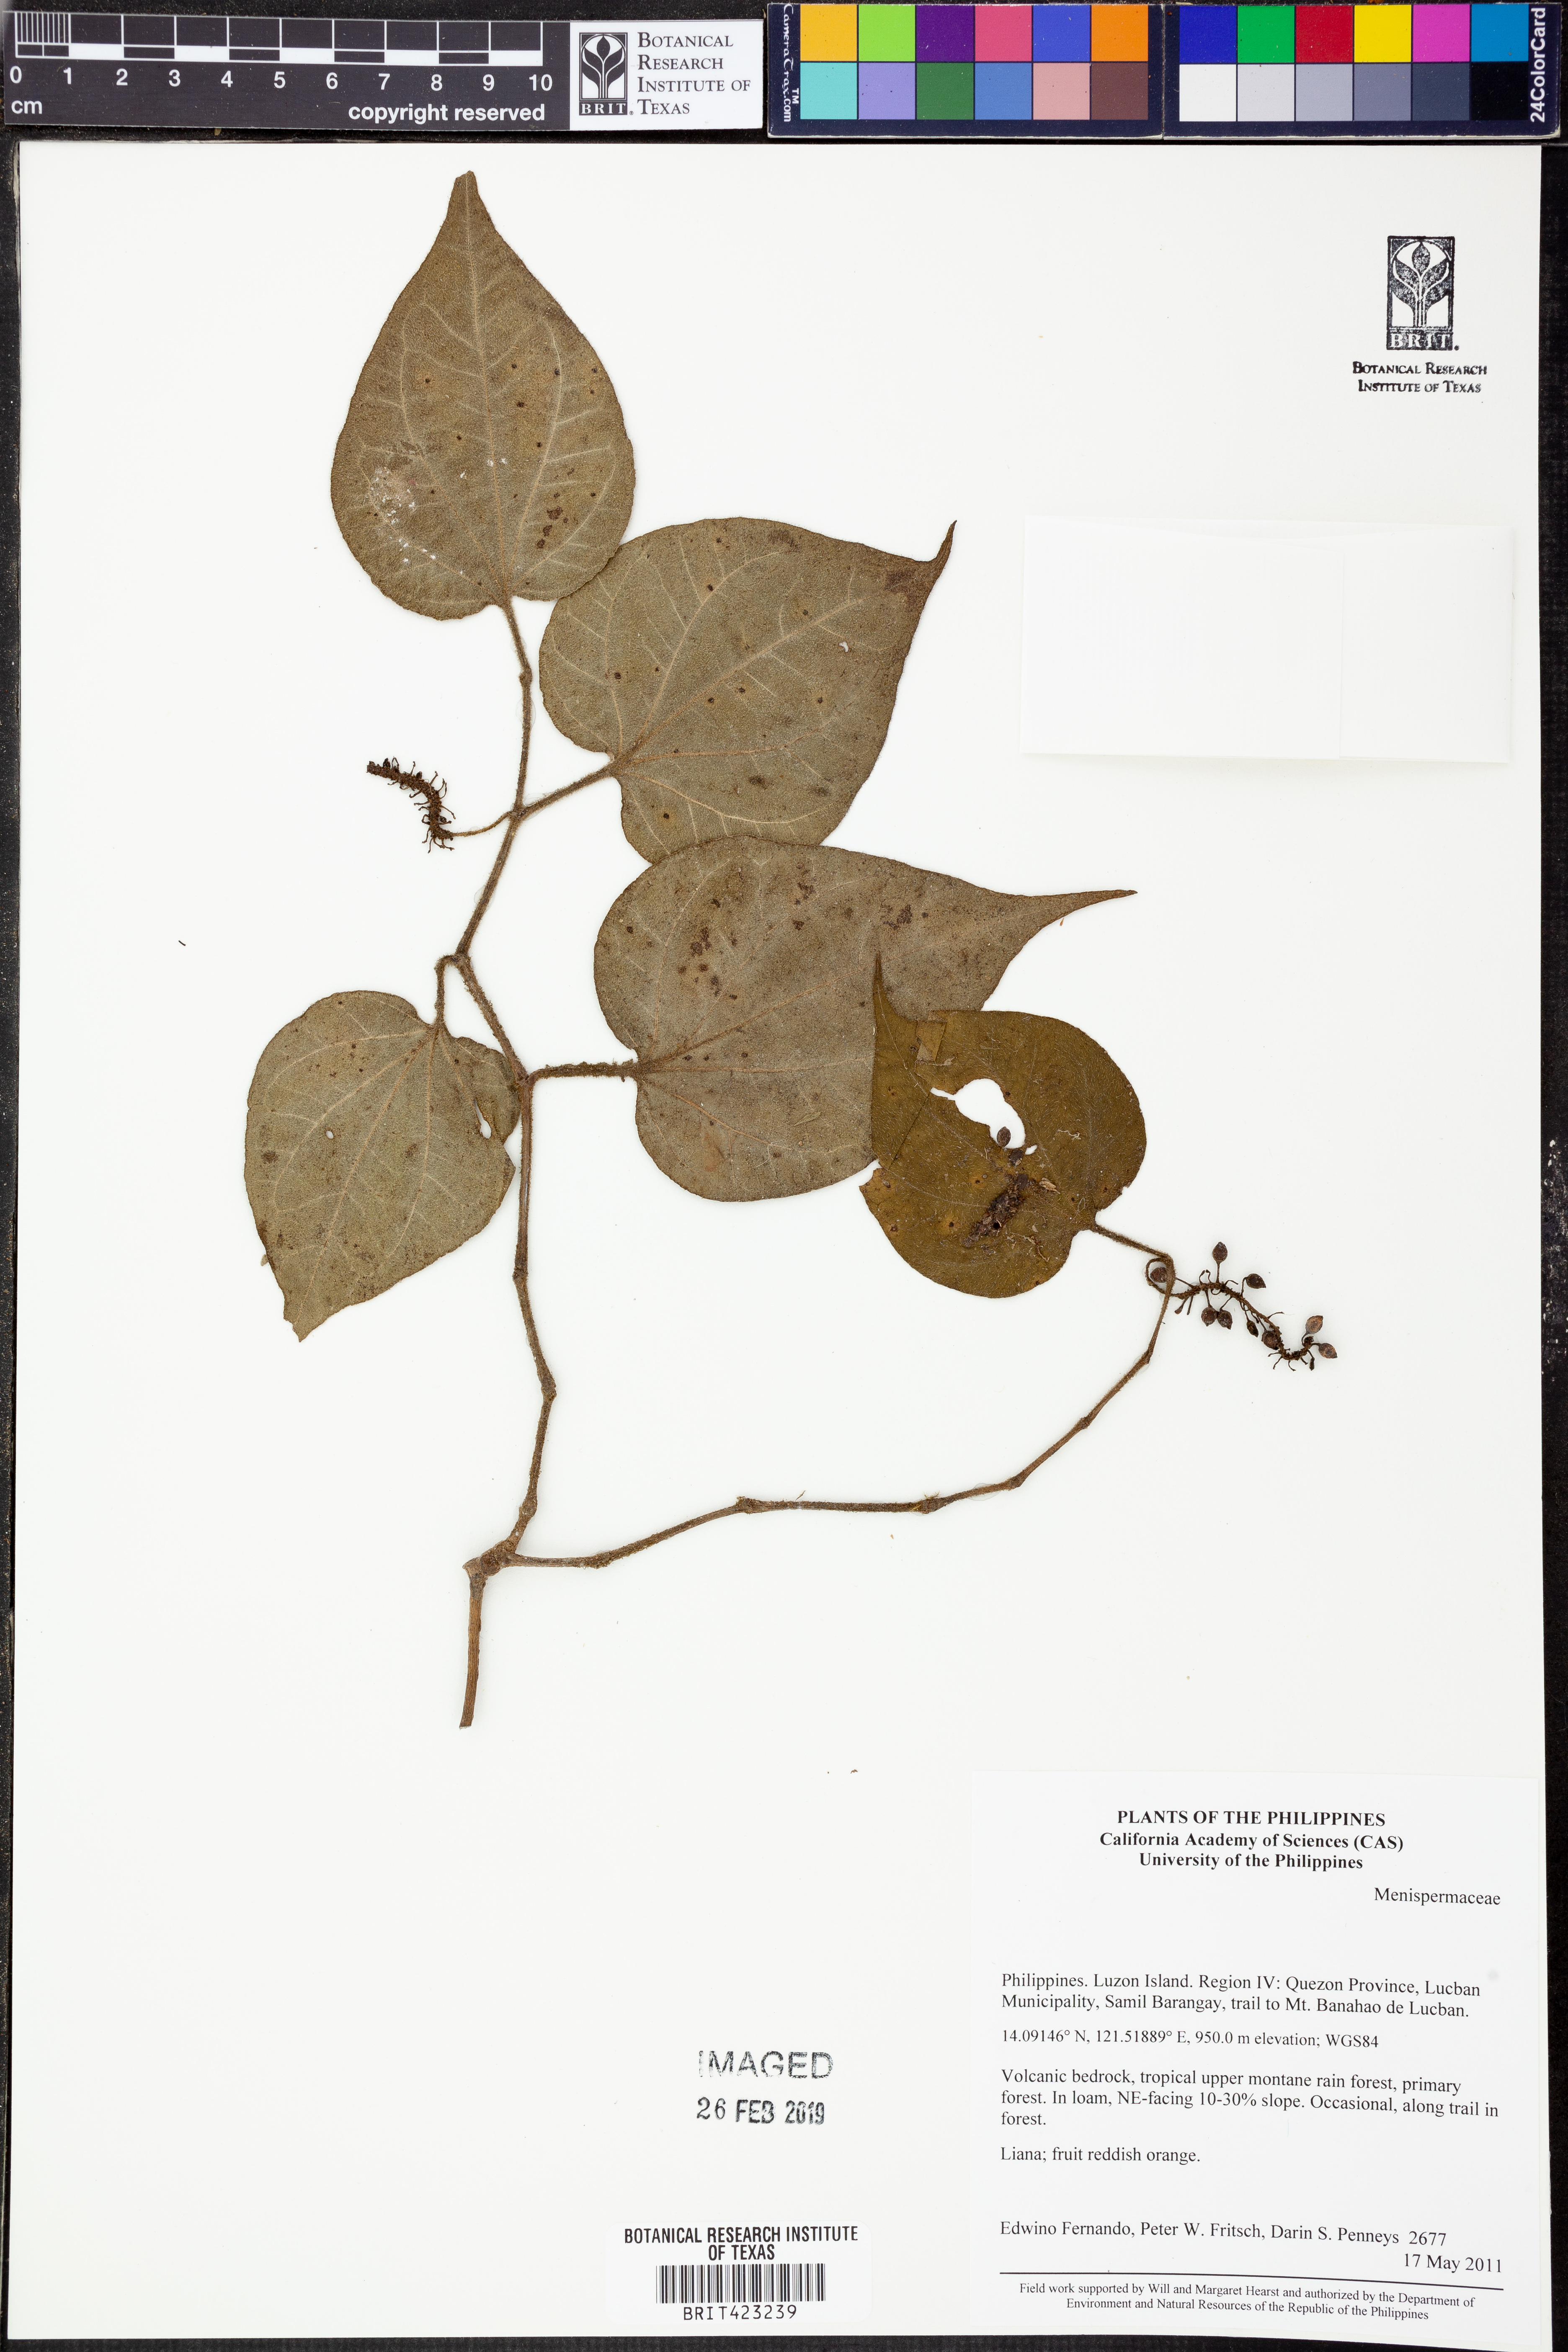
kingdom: Plantae
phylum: Tracheophyta
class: Magnoliopsida
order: Ranunculales
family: Menispermaceae
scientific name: Menispermaceae
